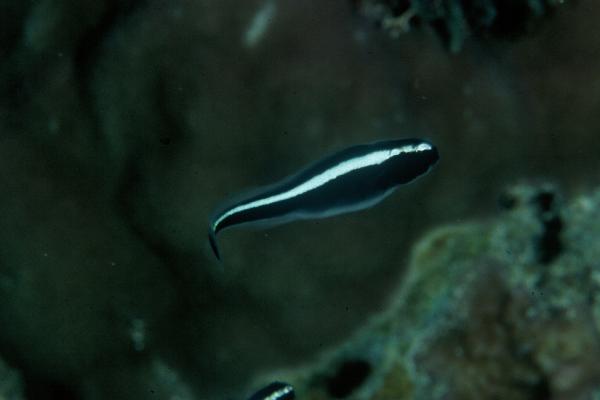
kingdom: Animalia
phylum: Chordata
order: Perciformes
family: Pholidichthyidae
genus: Pholidichthys
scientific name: Pholidichthys
